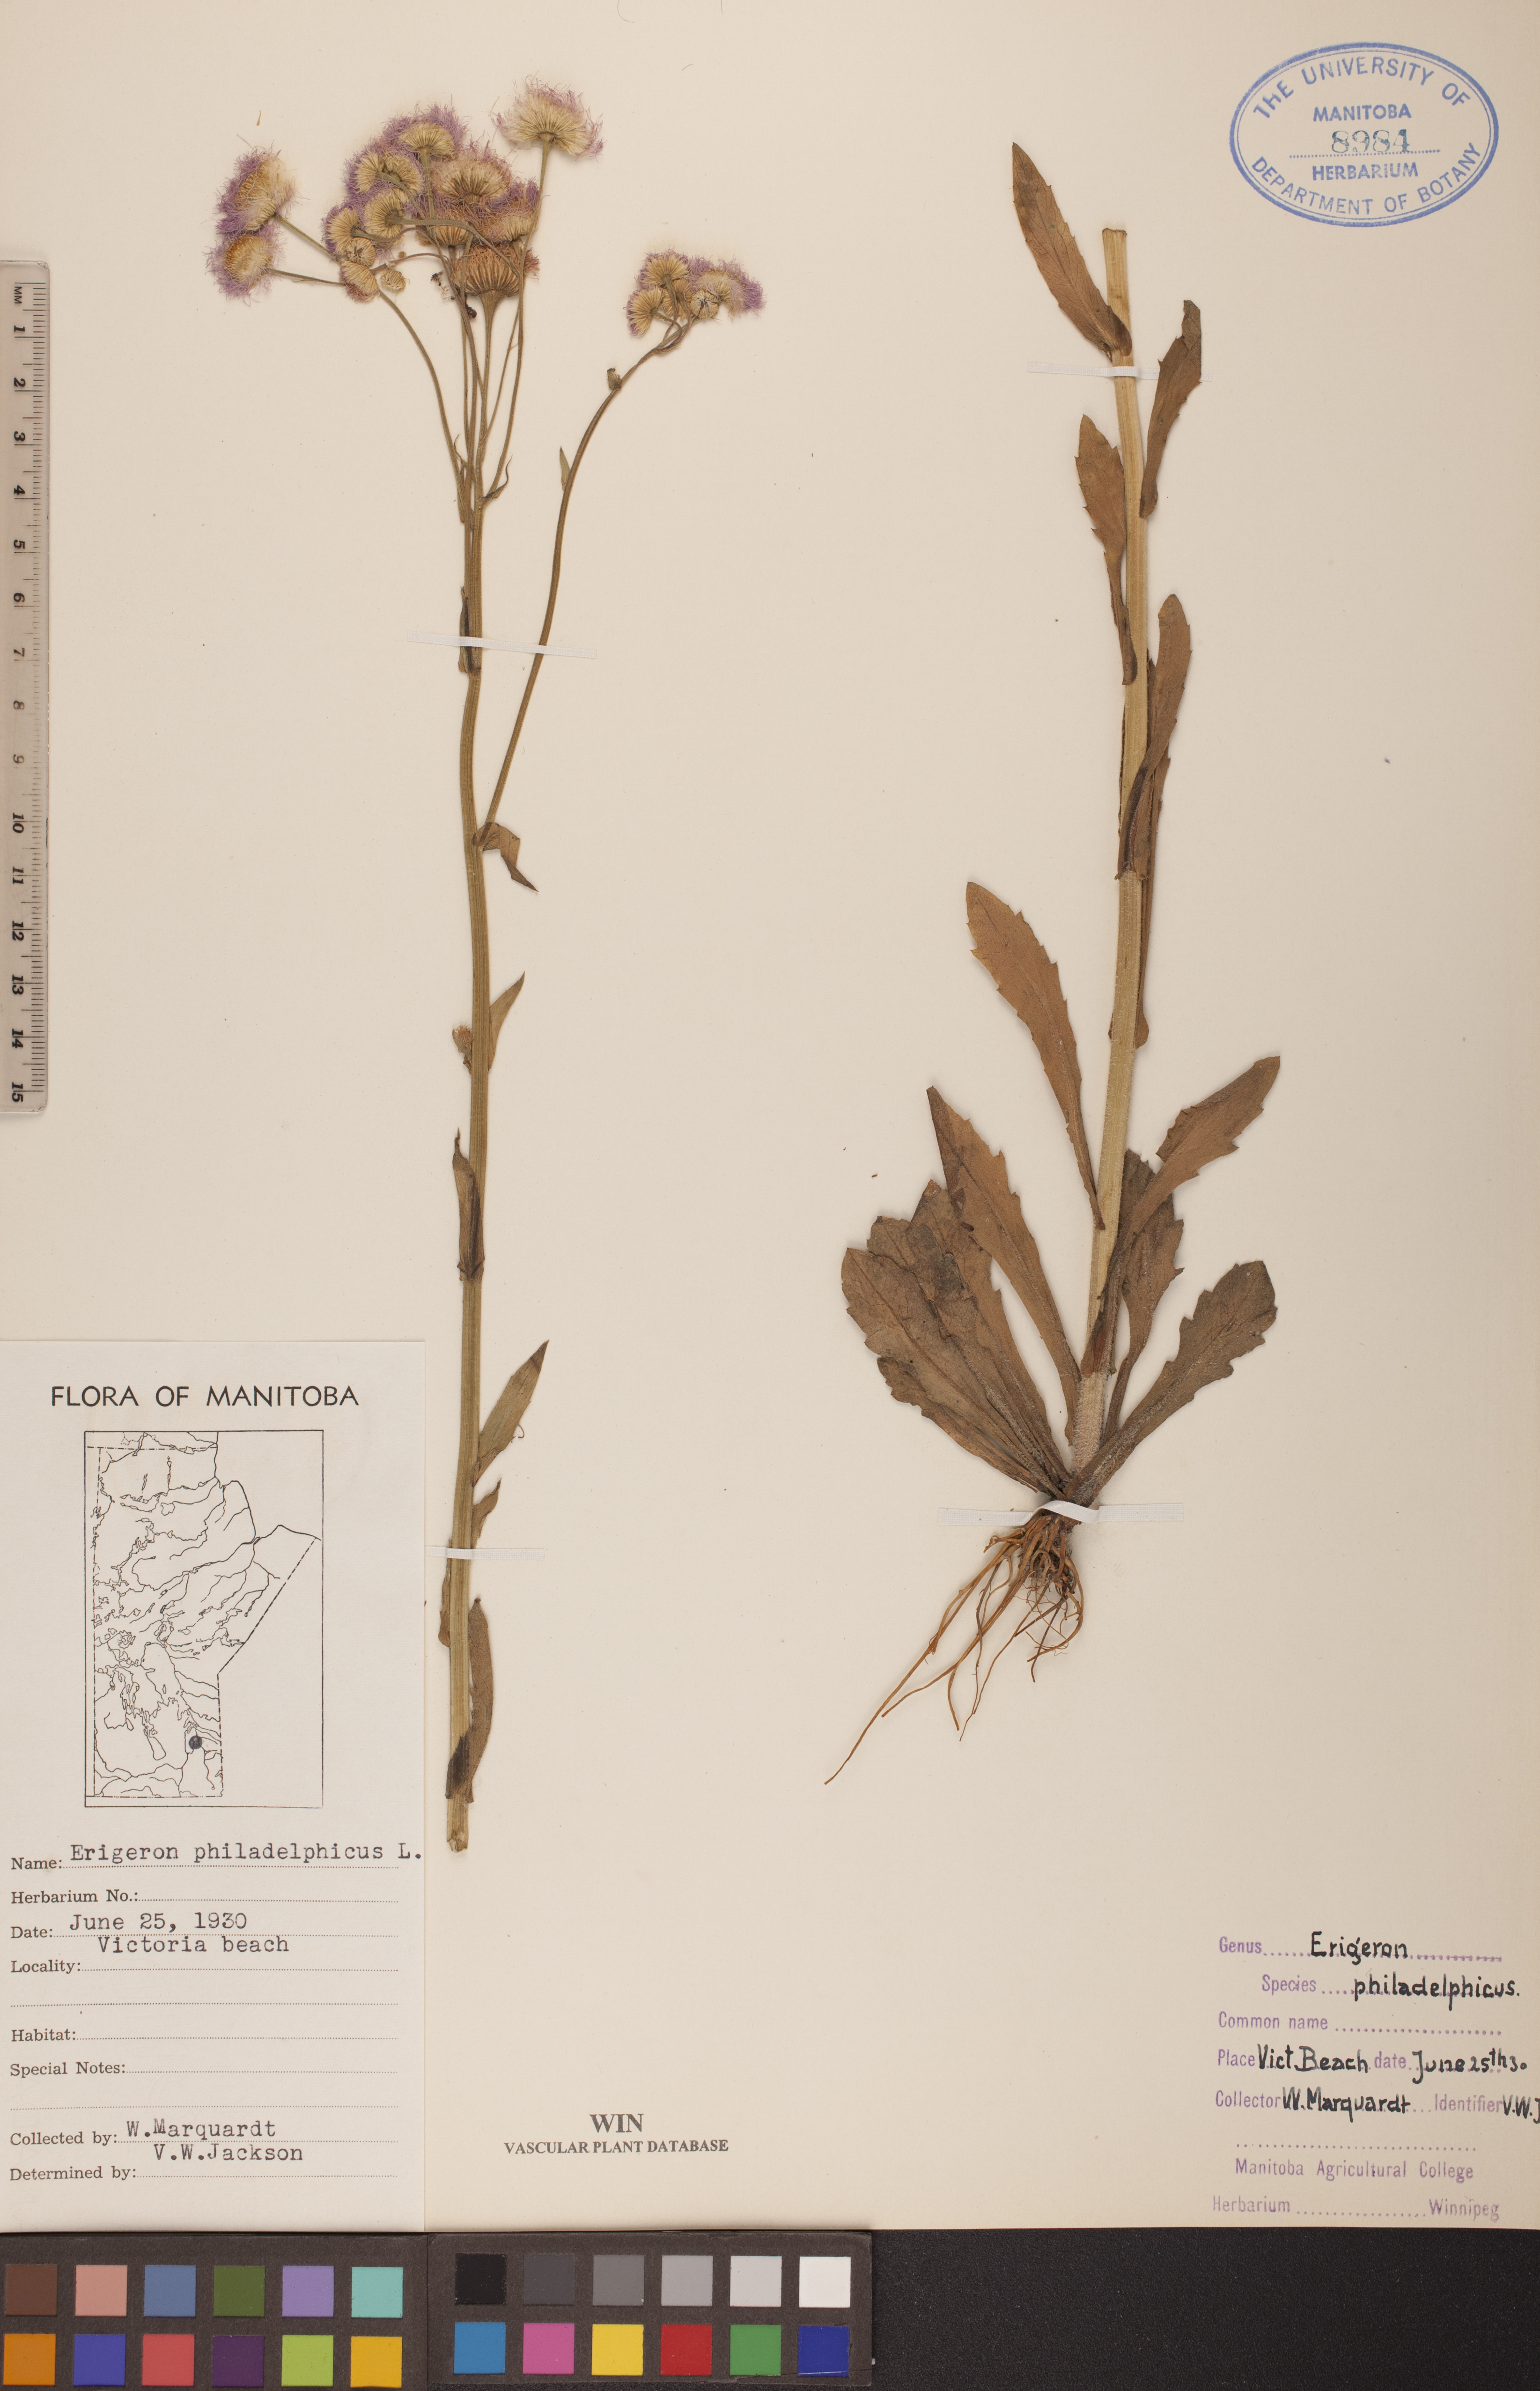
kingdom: Plantae
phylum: Tracheophyta
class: Magnoliopsida
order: Asterales
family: Asteraceae
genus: Erigeron
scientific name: Erigeron philadelphicus
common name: Robin's-plantain
